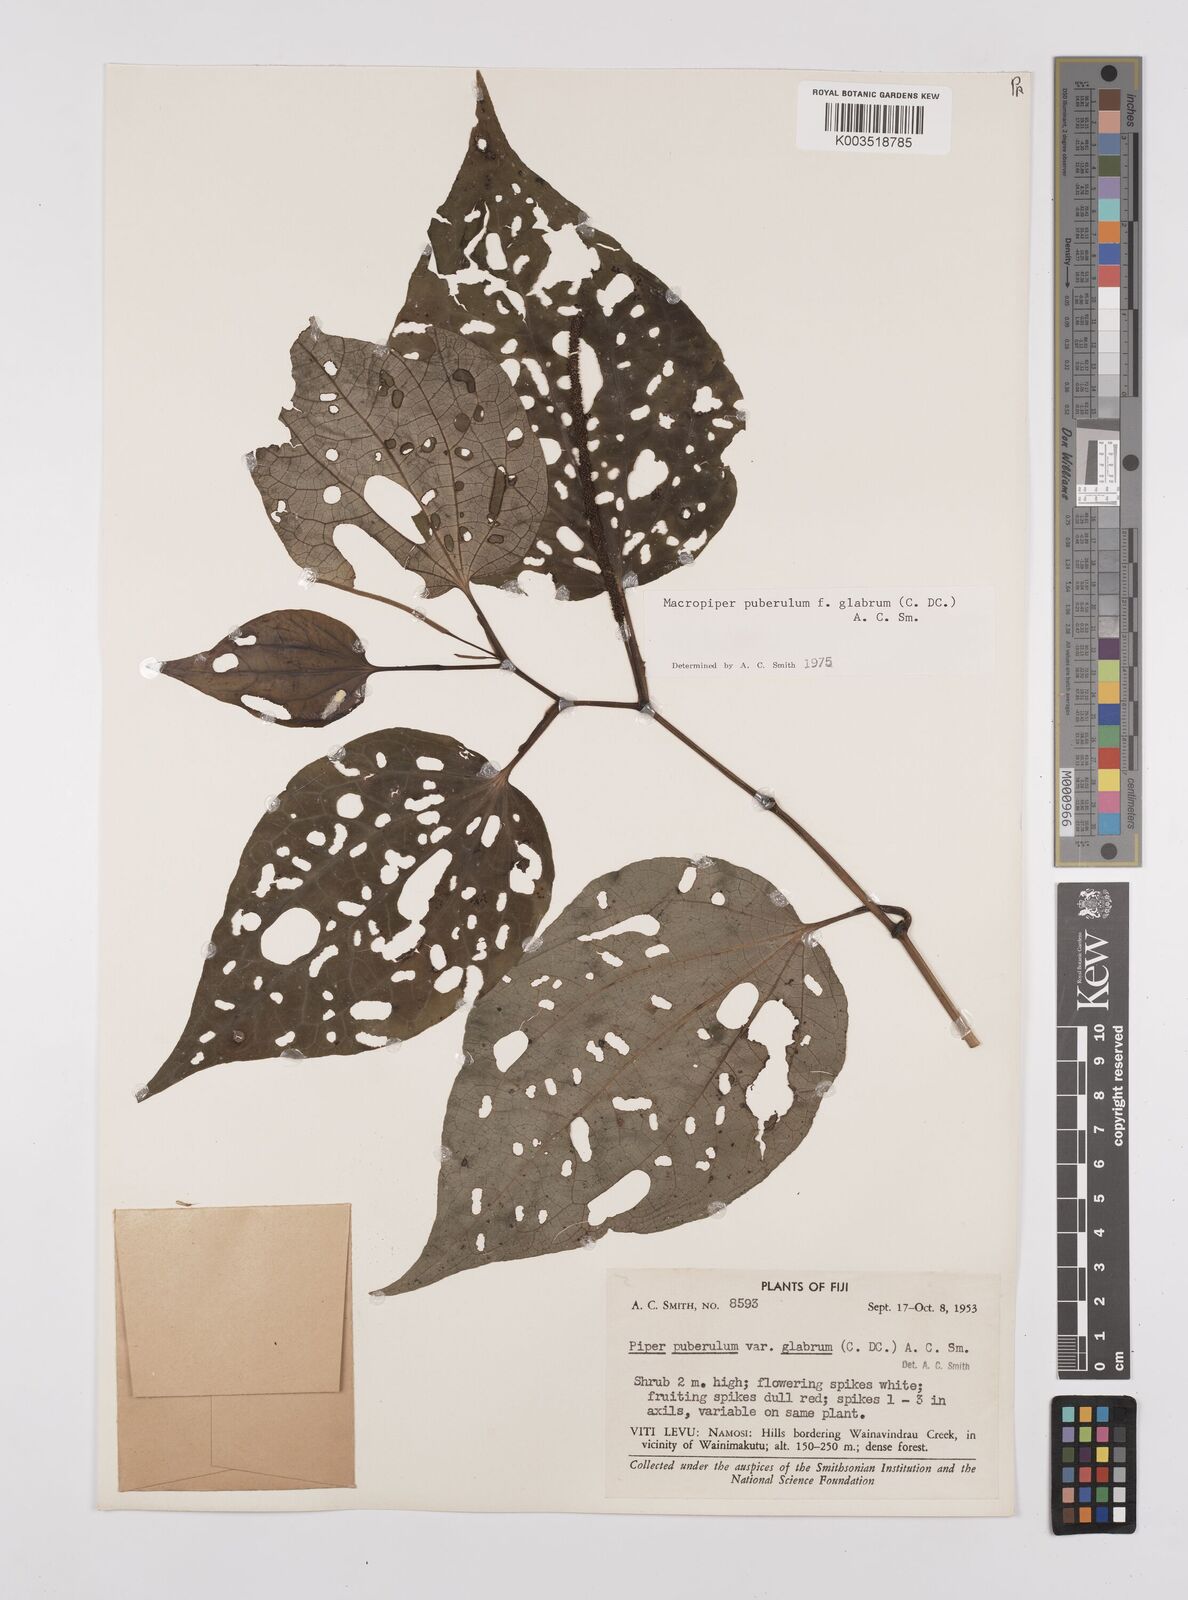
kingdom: Plantae
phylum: Tracheophyta
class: Magnoliopsida
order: Piperales
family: Piperaceae
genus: Macropiper
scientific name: Macropiper puberulum
